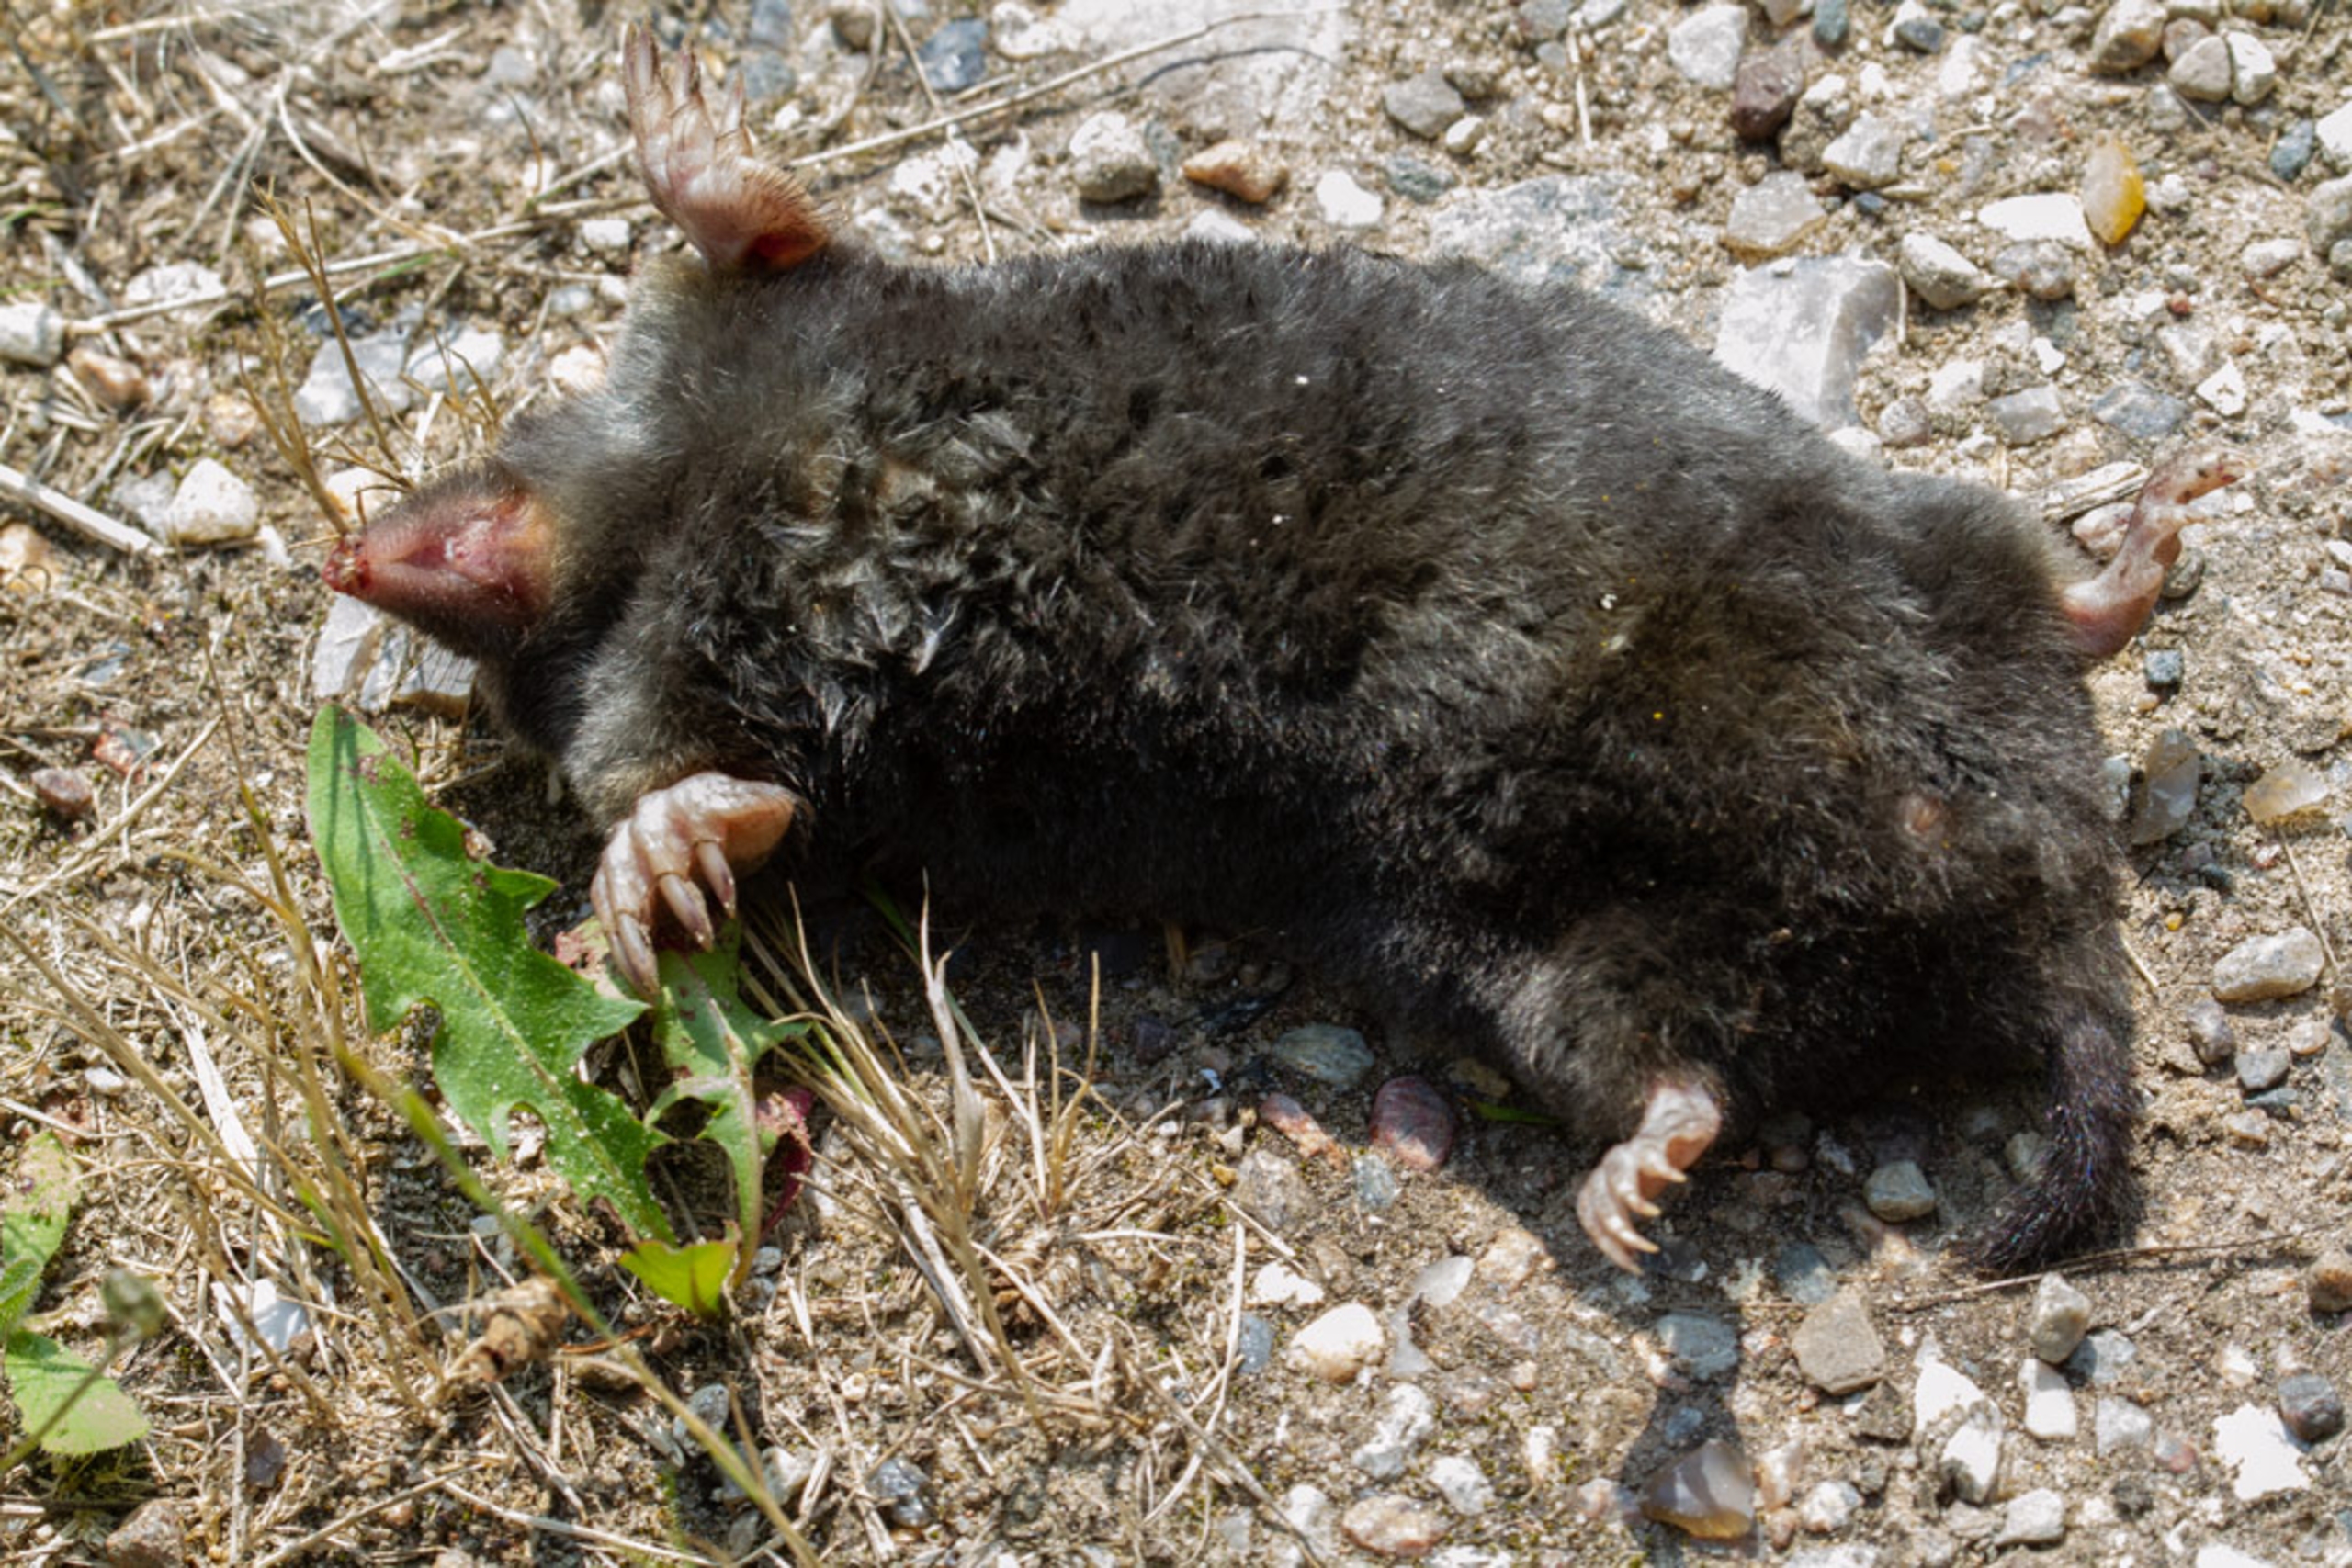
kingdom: Animalia
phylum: Chordata
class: Mammalia
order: Soricomorpha
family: Talpidae
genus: Talpa
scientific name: Talpa europaea
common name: Muldvarp
